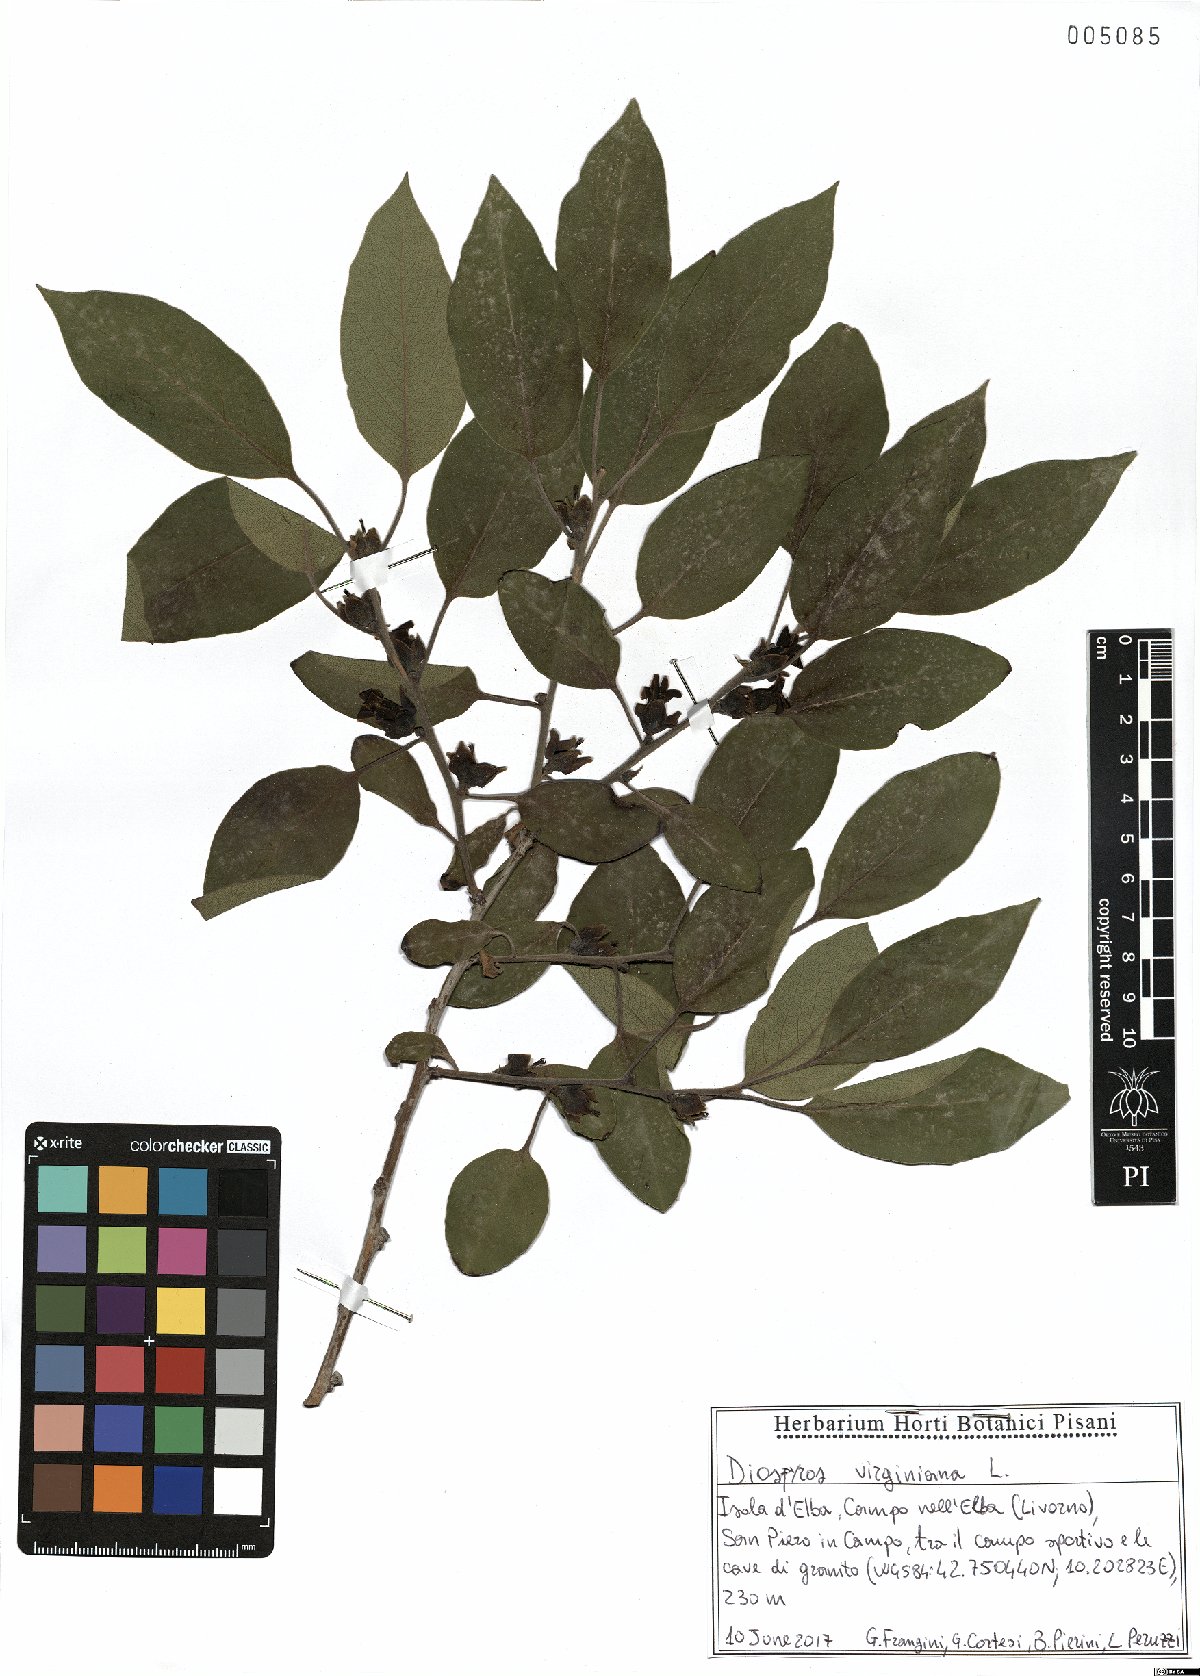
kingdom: Plantae
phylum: Tracheophyta
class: Magnoliopsida
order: Ericales
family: Ebenaceae
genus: Diospyros
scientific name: Diospyros virginiana
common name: Persimmon
